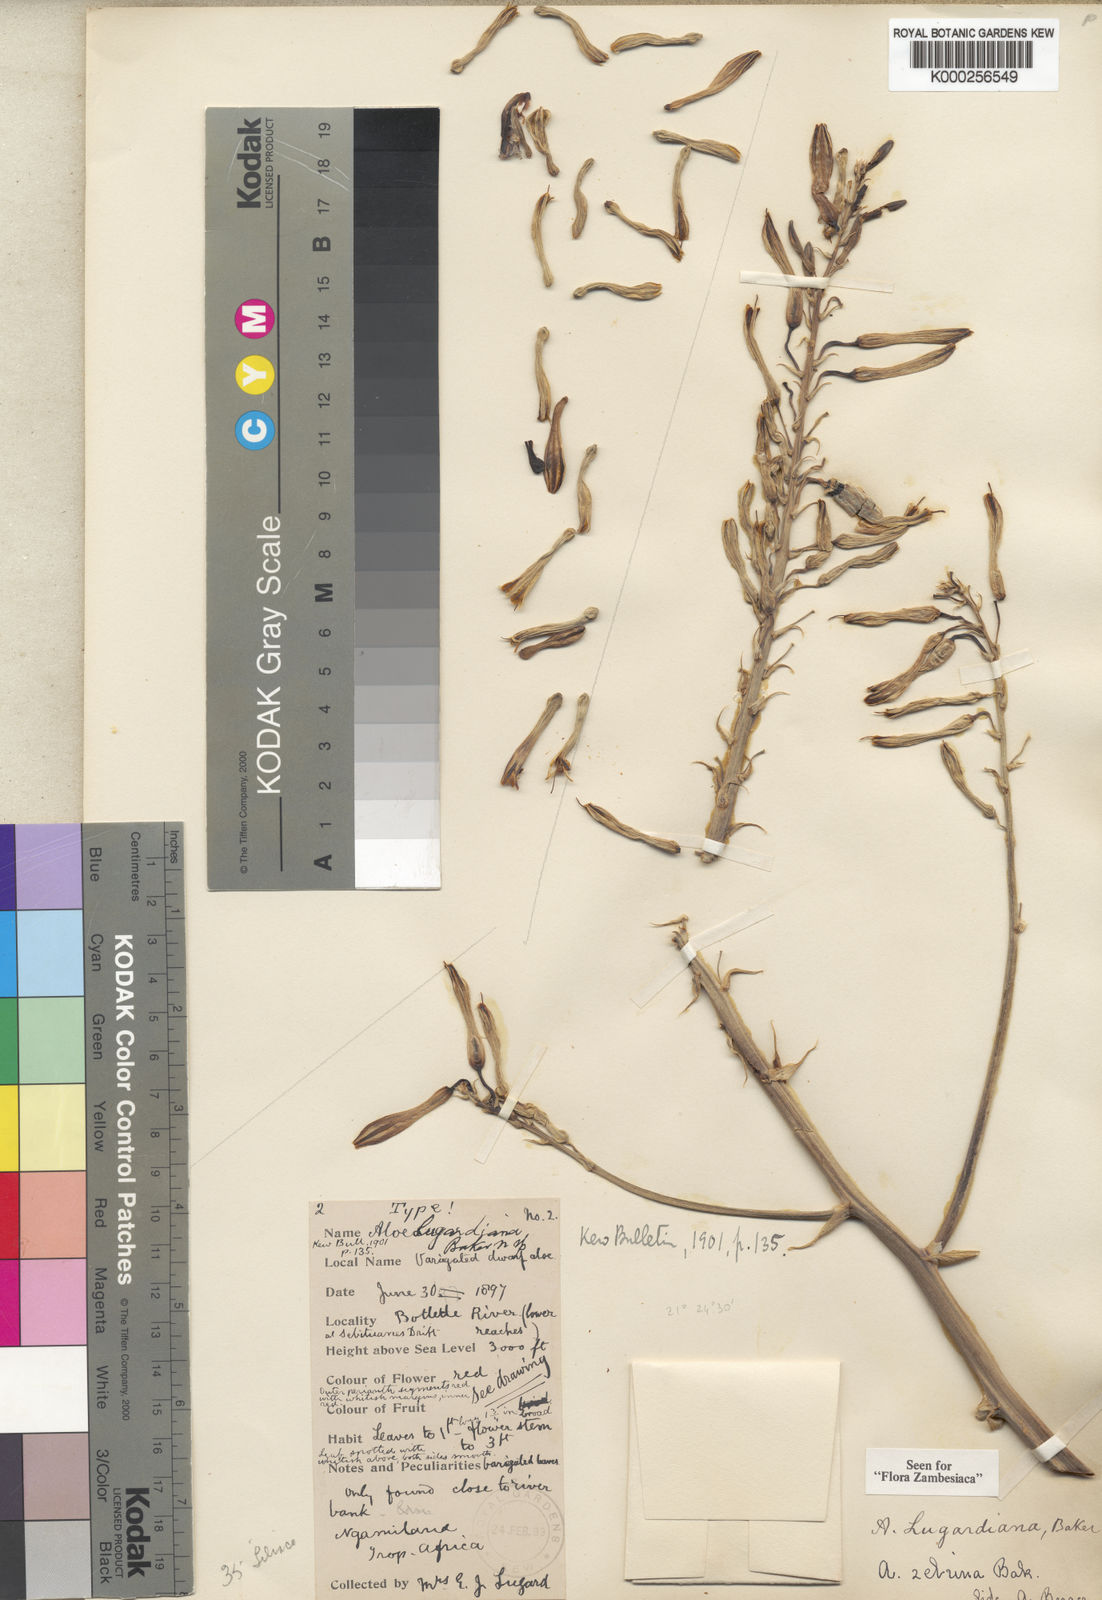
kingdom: Plantae
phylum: Tracheophyta
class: Liliopsida
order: Asparagales
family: Asphodelaceae
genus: Aloe
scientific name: Aloe zebrina
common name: Zebra-leaf aloe
